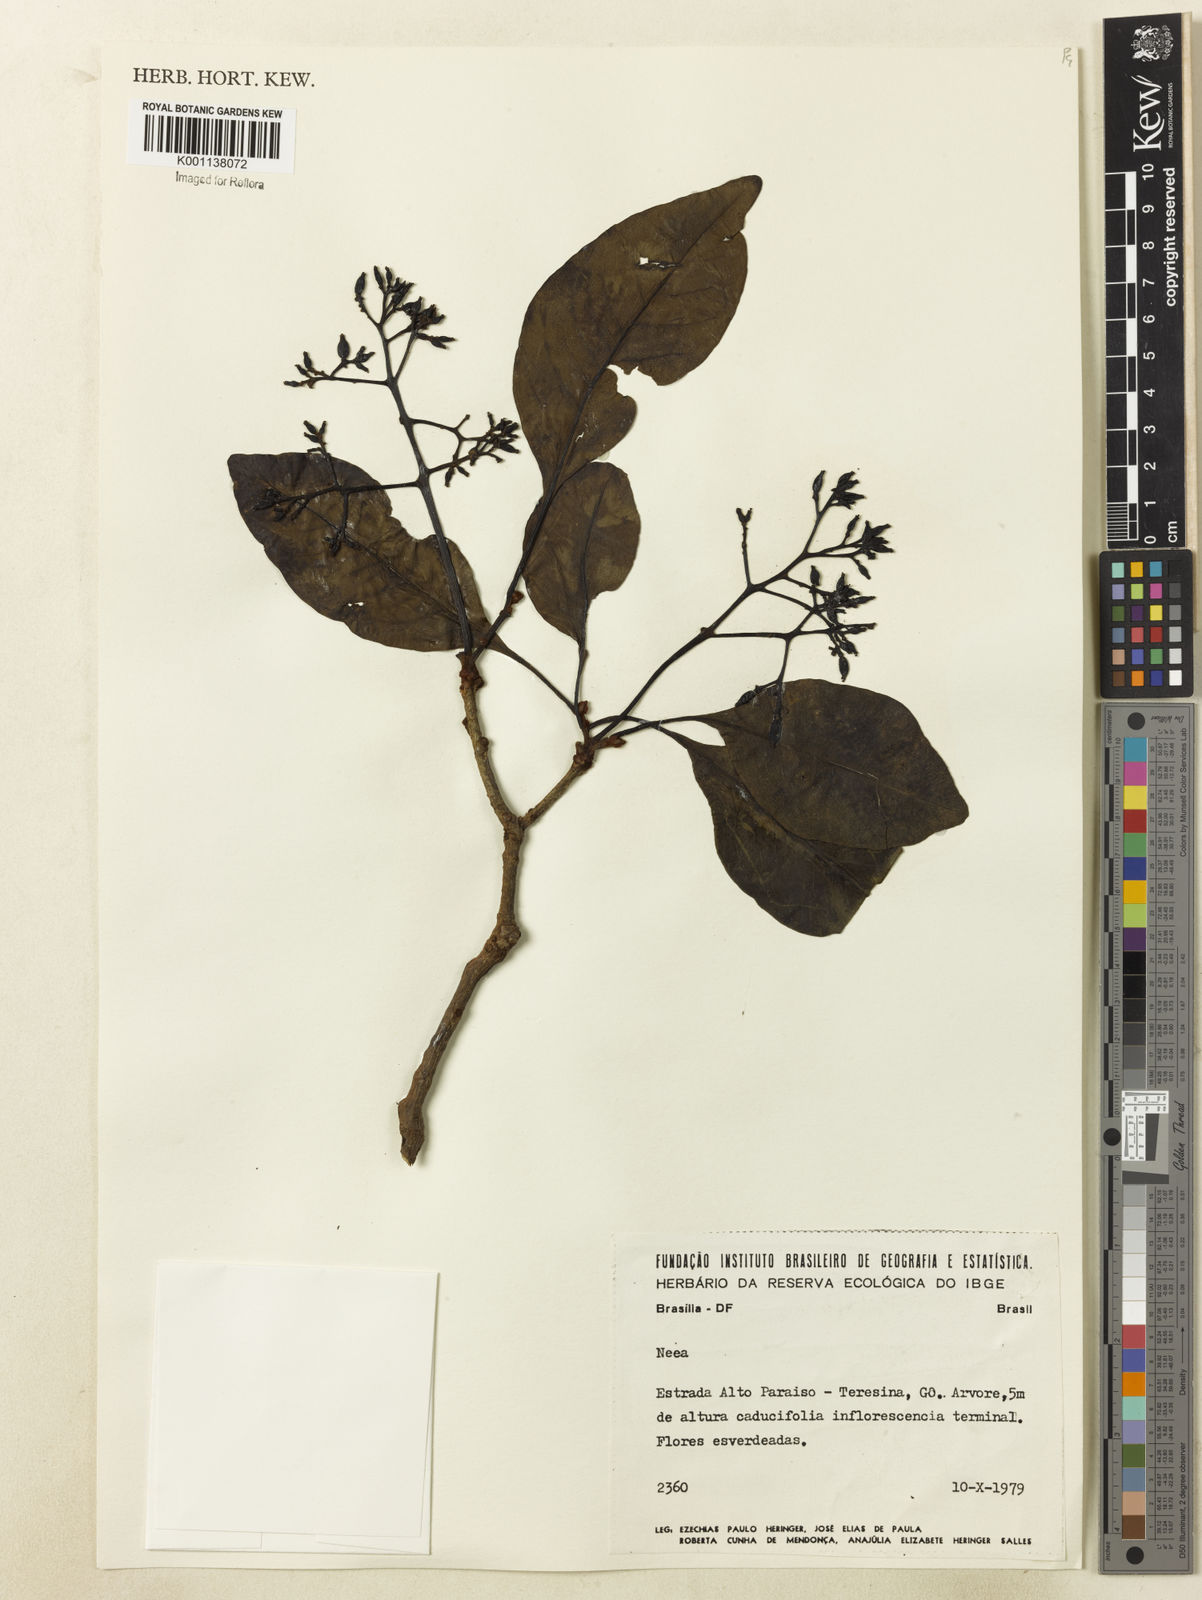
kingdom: Plantae
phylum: Tracheophyta
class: Magnoliopsida
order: Caryophyllales
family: Nyctaginaceae
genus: Neea
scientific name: Neea
